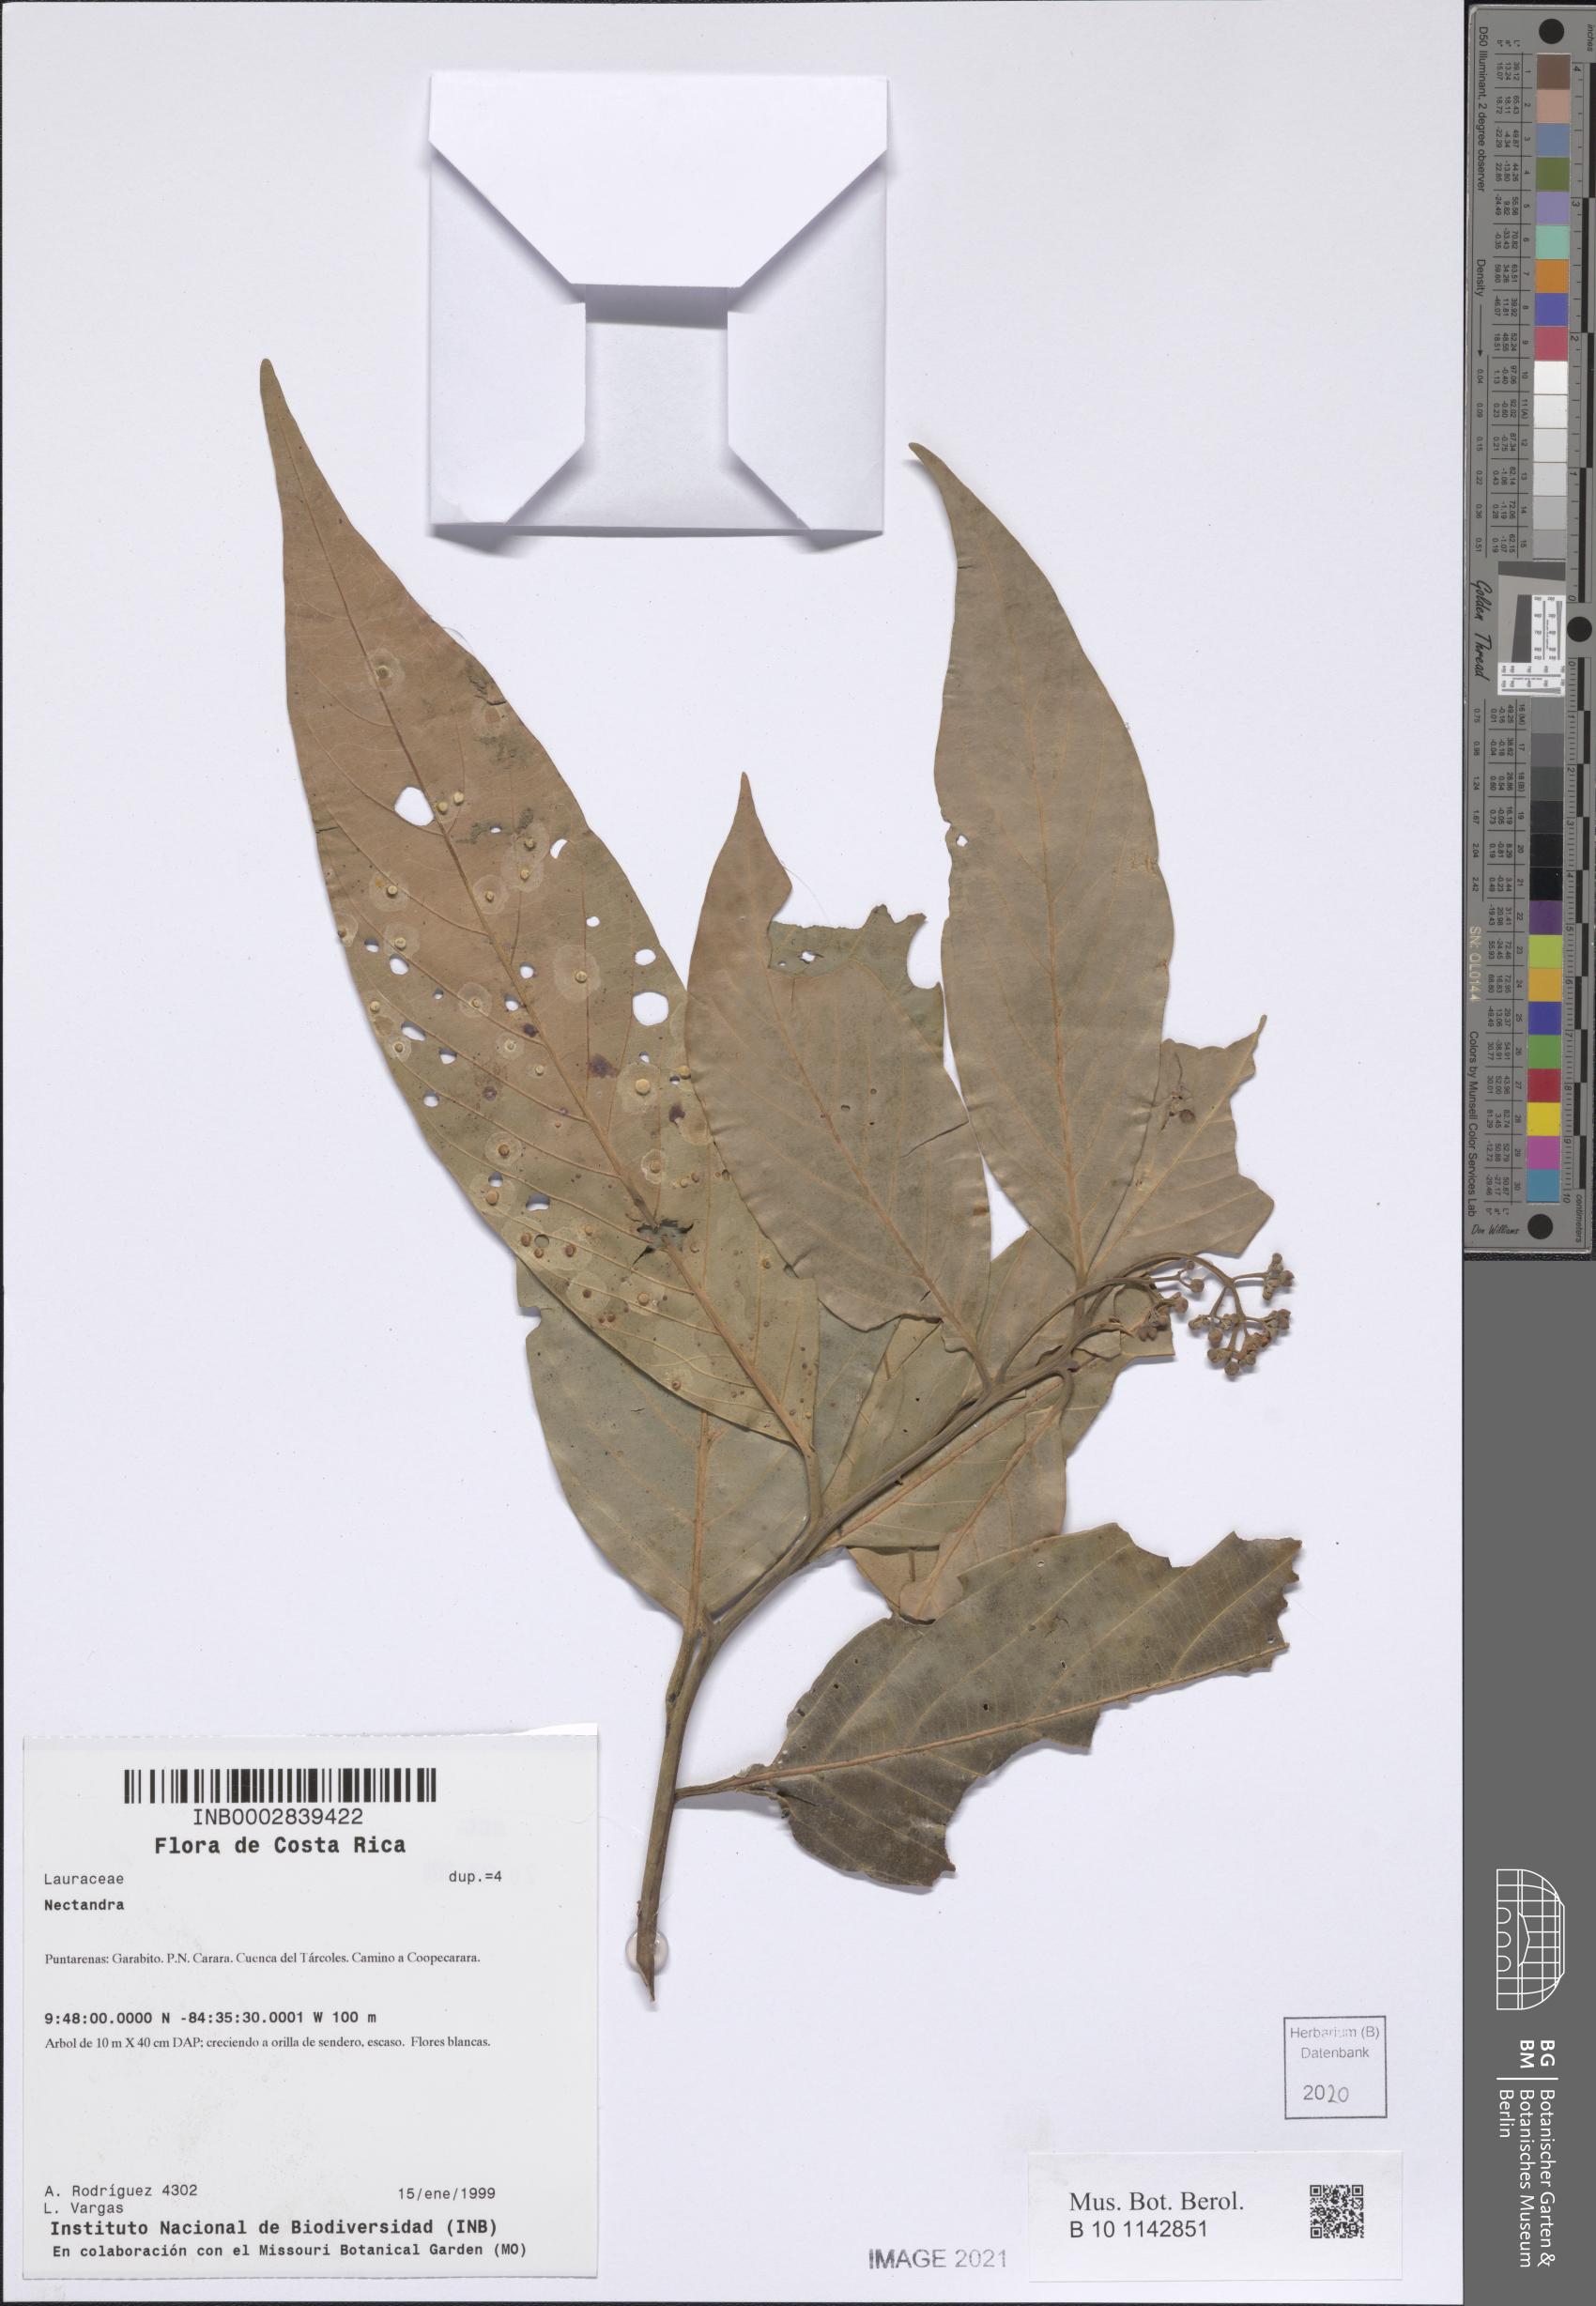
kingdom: Plantae
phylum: Tracheophyta
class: Magnoliopsida
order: Laurales
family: Lauraceae
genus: Nectandra
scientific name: Nectandra
